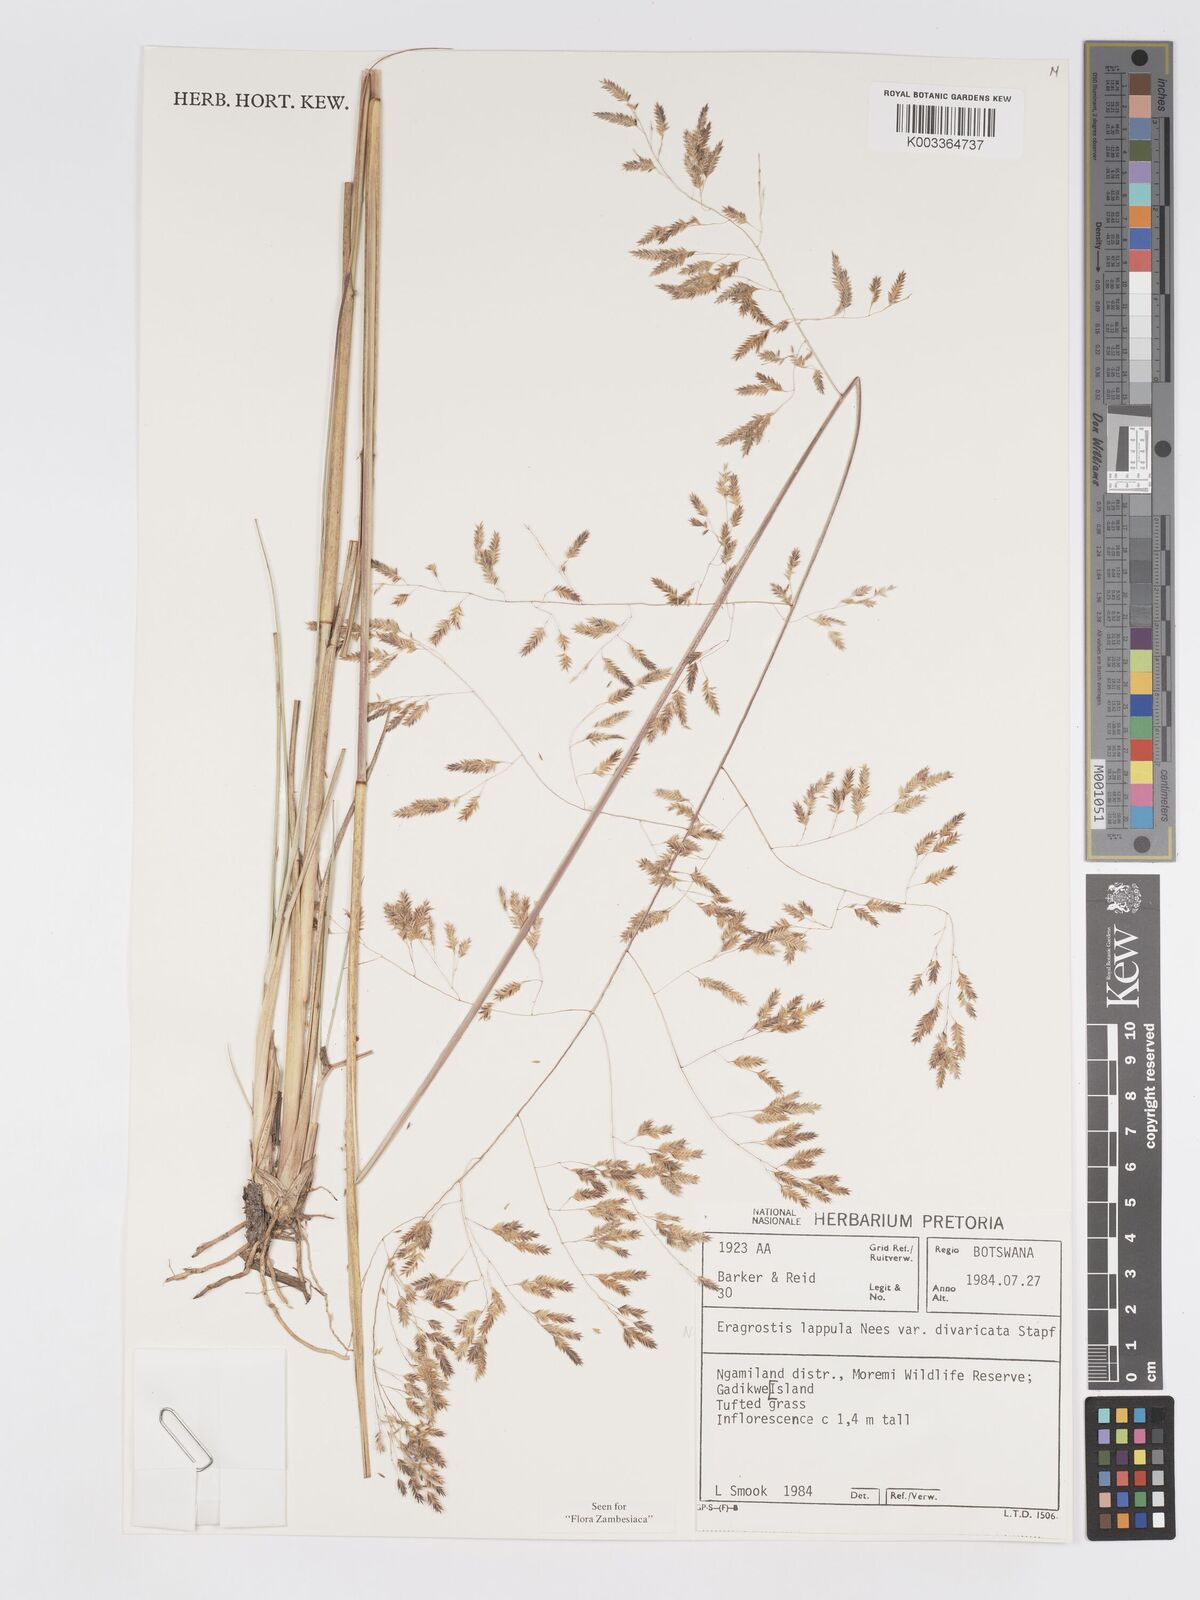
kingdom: Plantae
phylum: Tracheophyta
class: Liliopsida
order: Poales
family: Poaceae
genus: Eragrostis
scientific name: Eragrostis lappula
